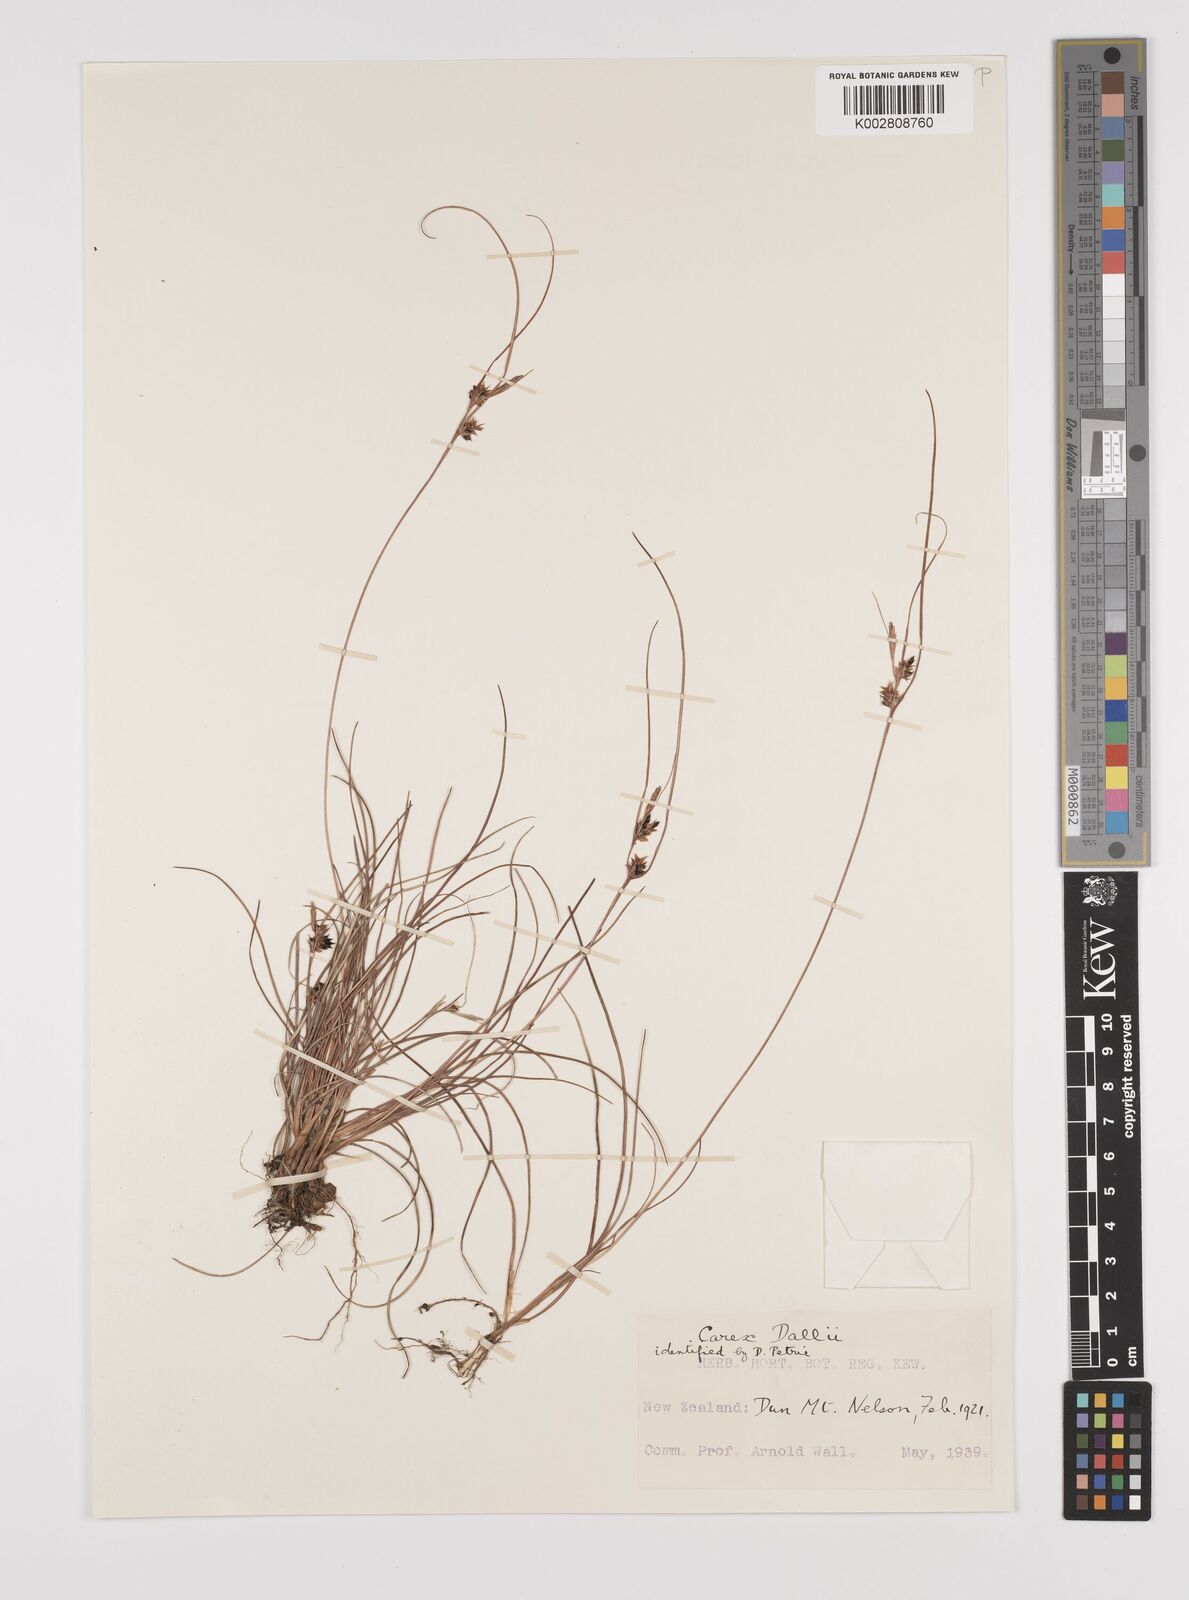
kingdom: Plantae
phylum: Tracheophyta
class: Liliopsida
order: Poales
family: Cyperaceae
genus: Carex
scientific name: Carex dallii
